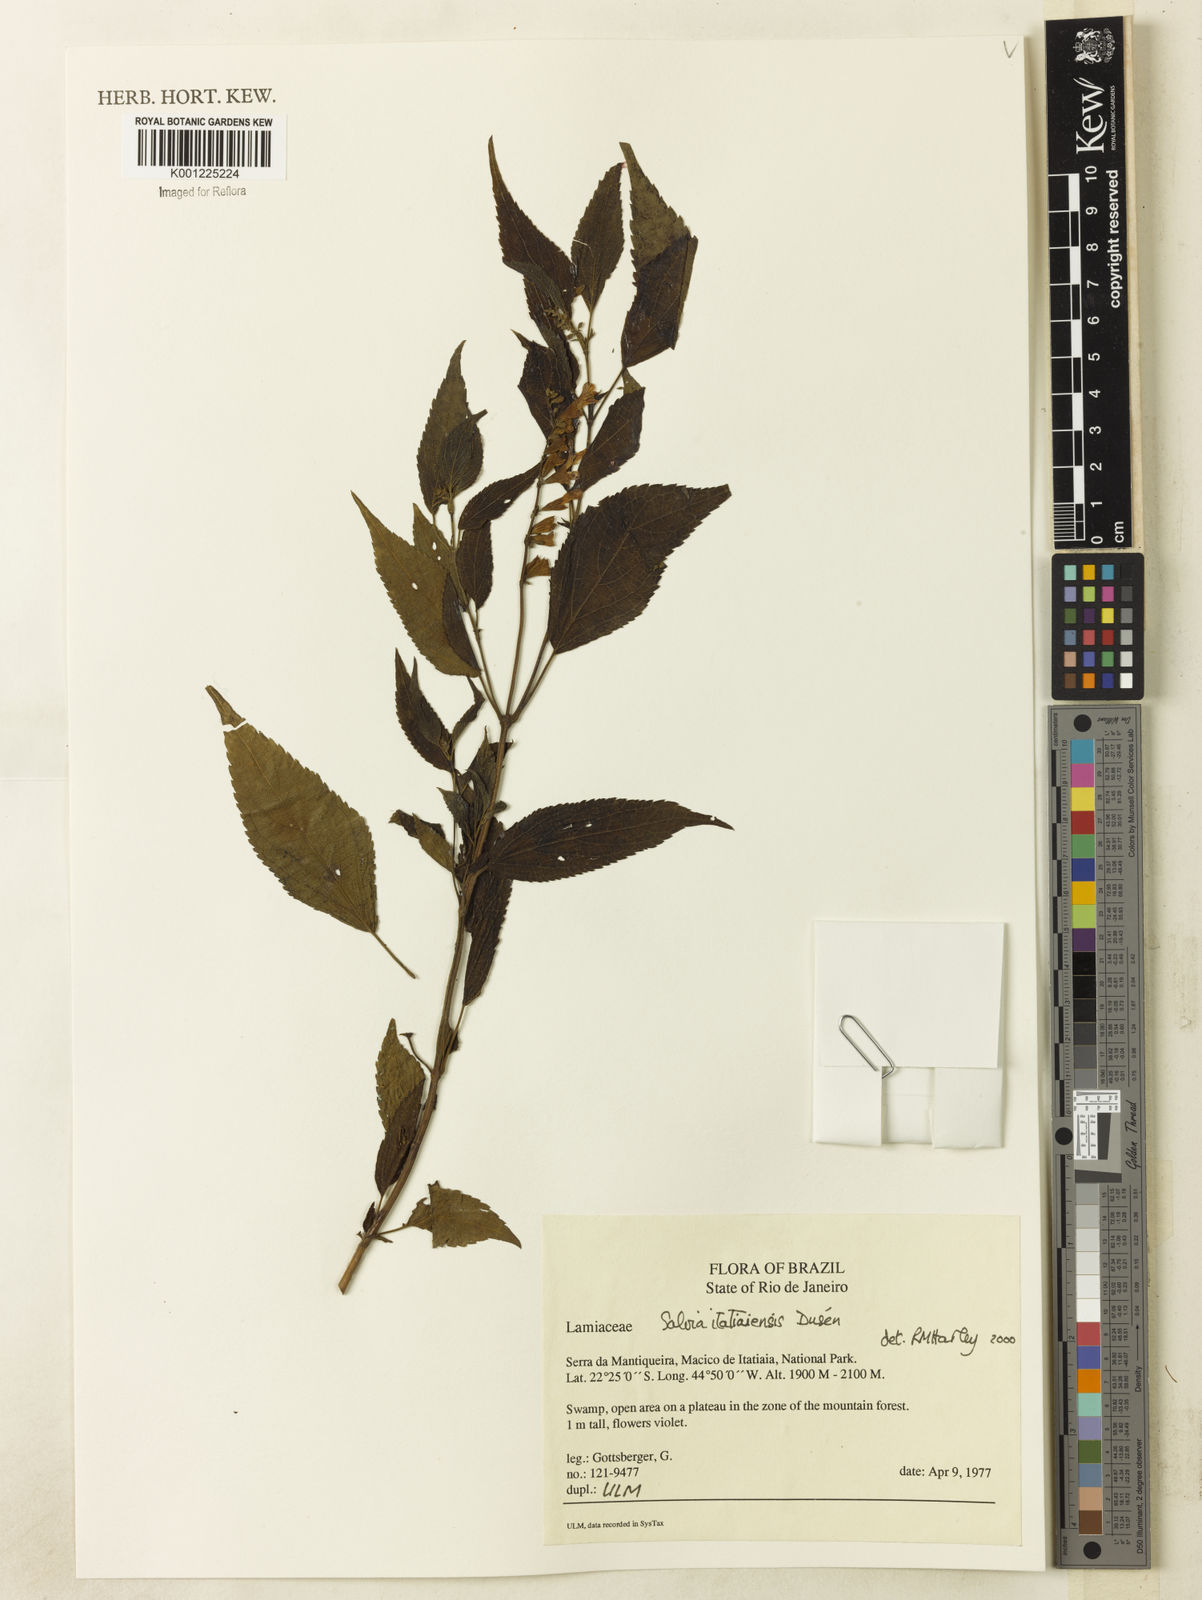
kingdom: Plantae
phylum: Tracheophyta
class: Magnoliopsida
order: Lamiales
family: Lamiaceae
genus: Salvia
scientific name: Salvia
